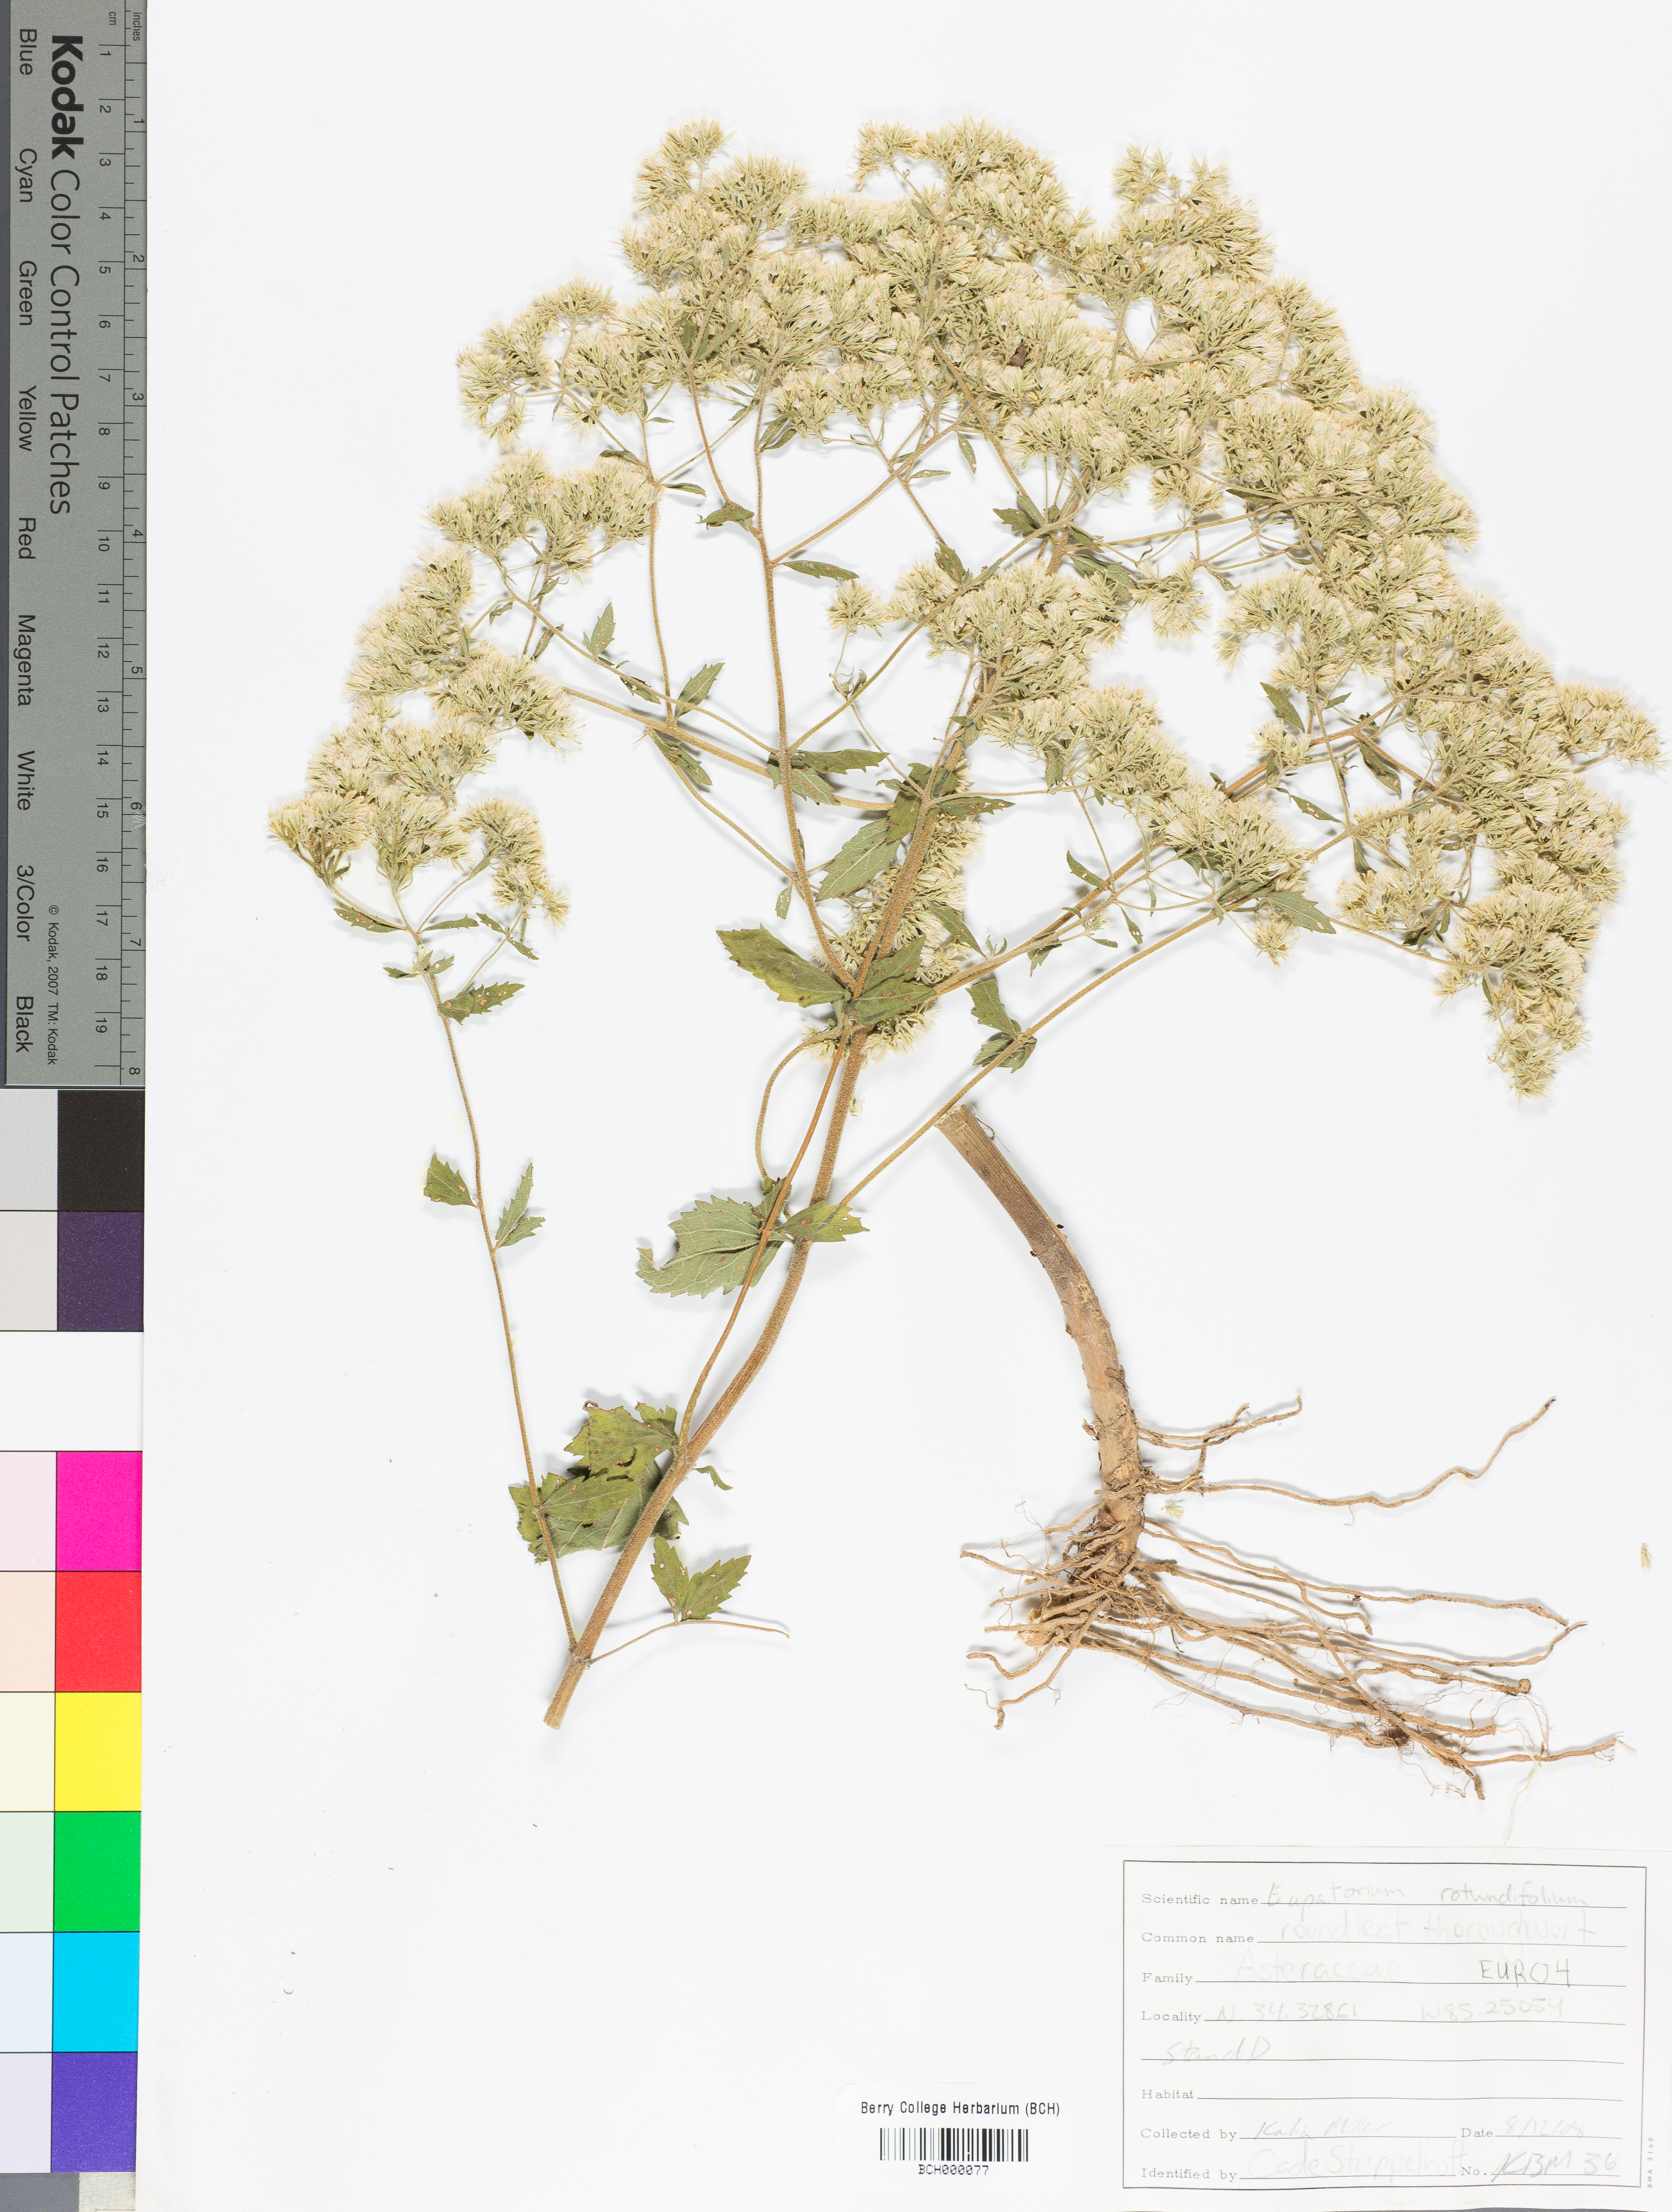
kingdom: Plantae
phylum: Tracheophyta
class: Magnoliopsida
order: Asterales
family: Asteraceae
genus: Eupatorium
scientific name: Eupatorium rotundifolium
